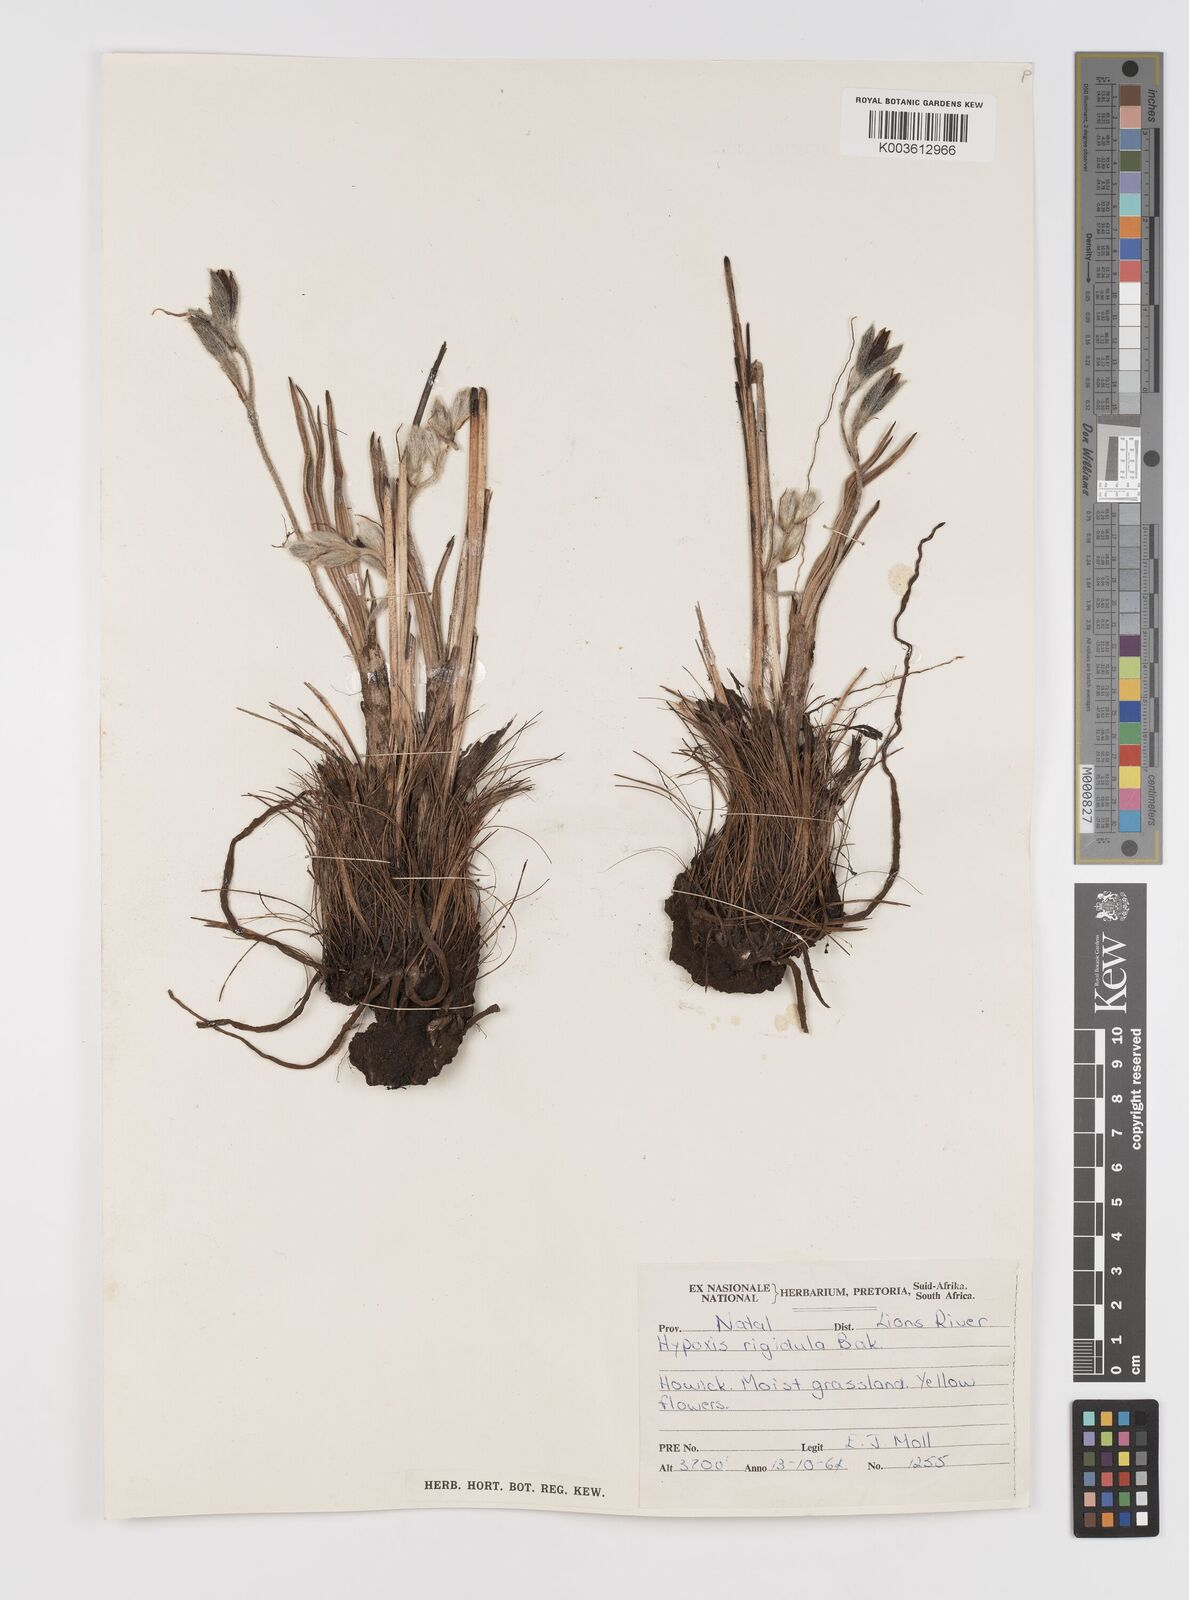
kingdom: Plantae
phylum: Tracheophyta
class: Liliopsida
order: Asparagales
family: Hypoxidaceae
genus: Hypoxis
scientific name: Hypoxis rigidula
